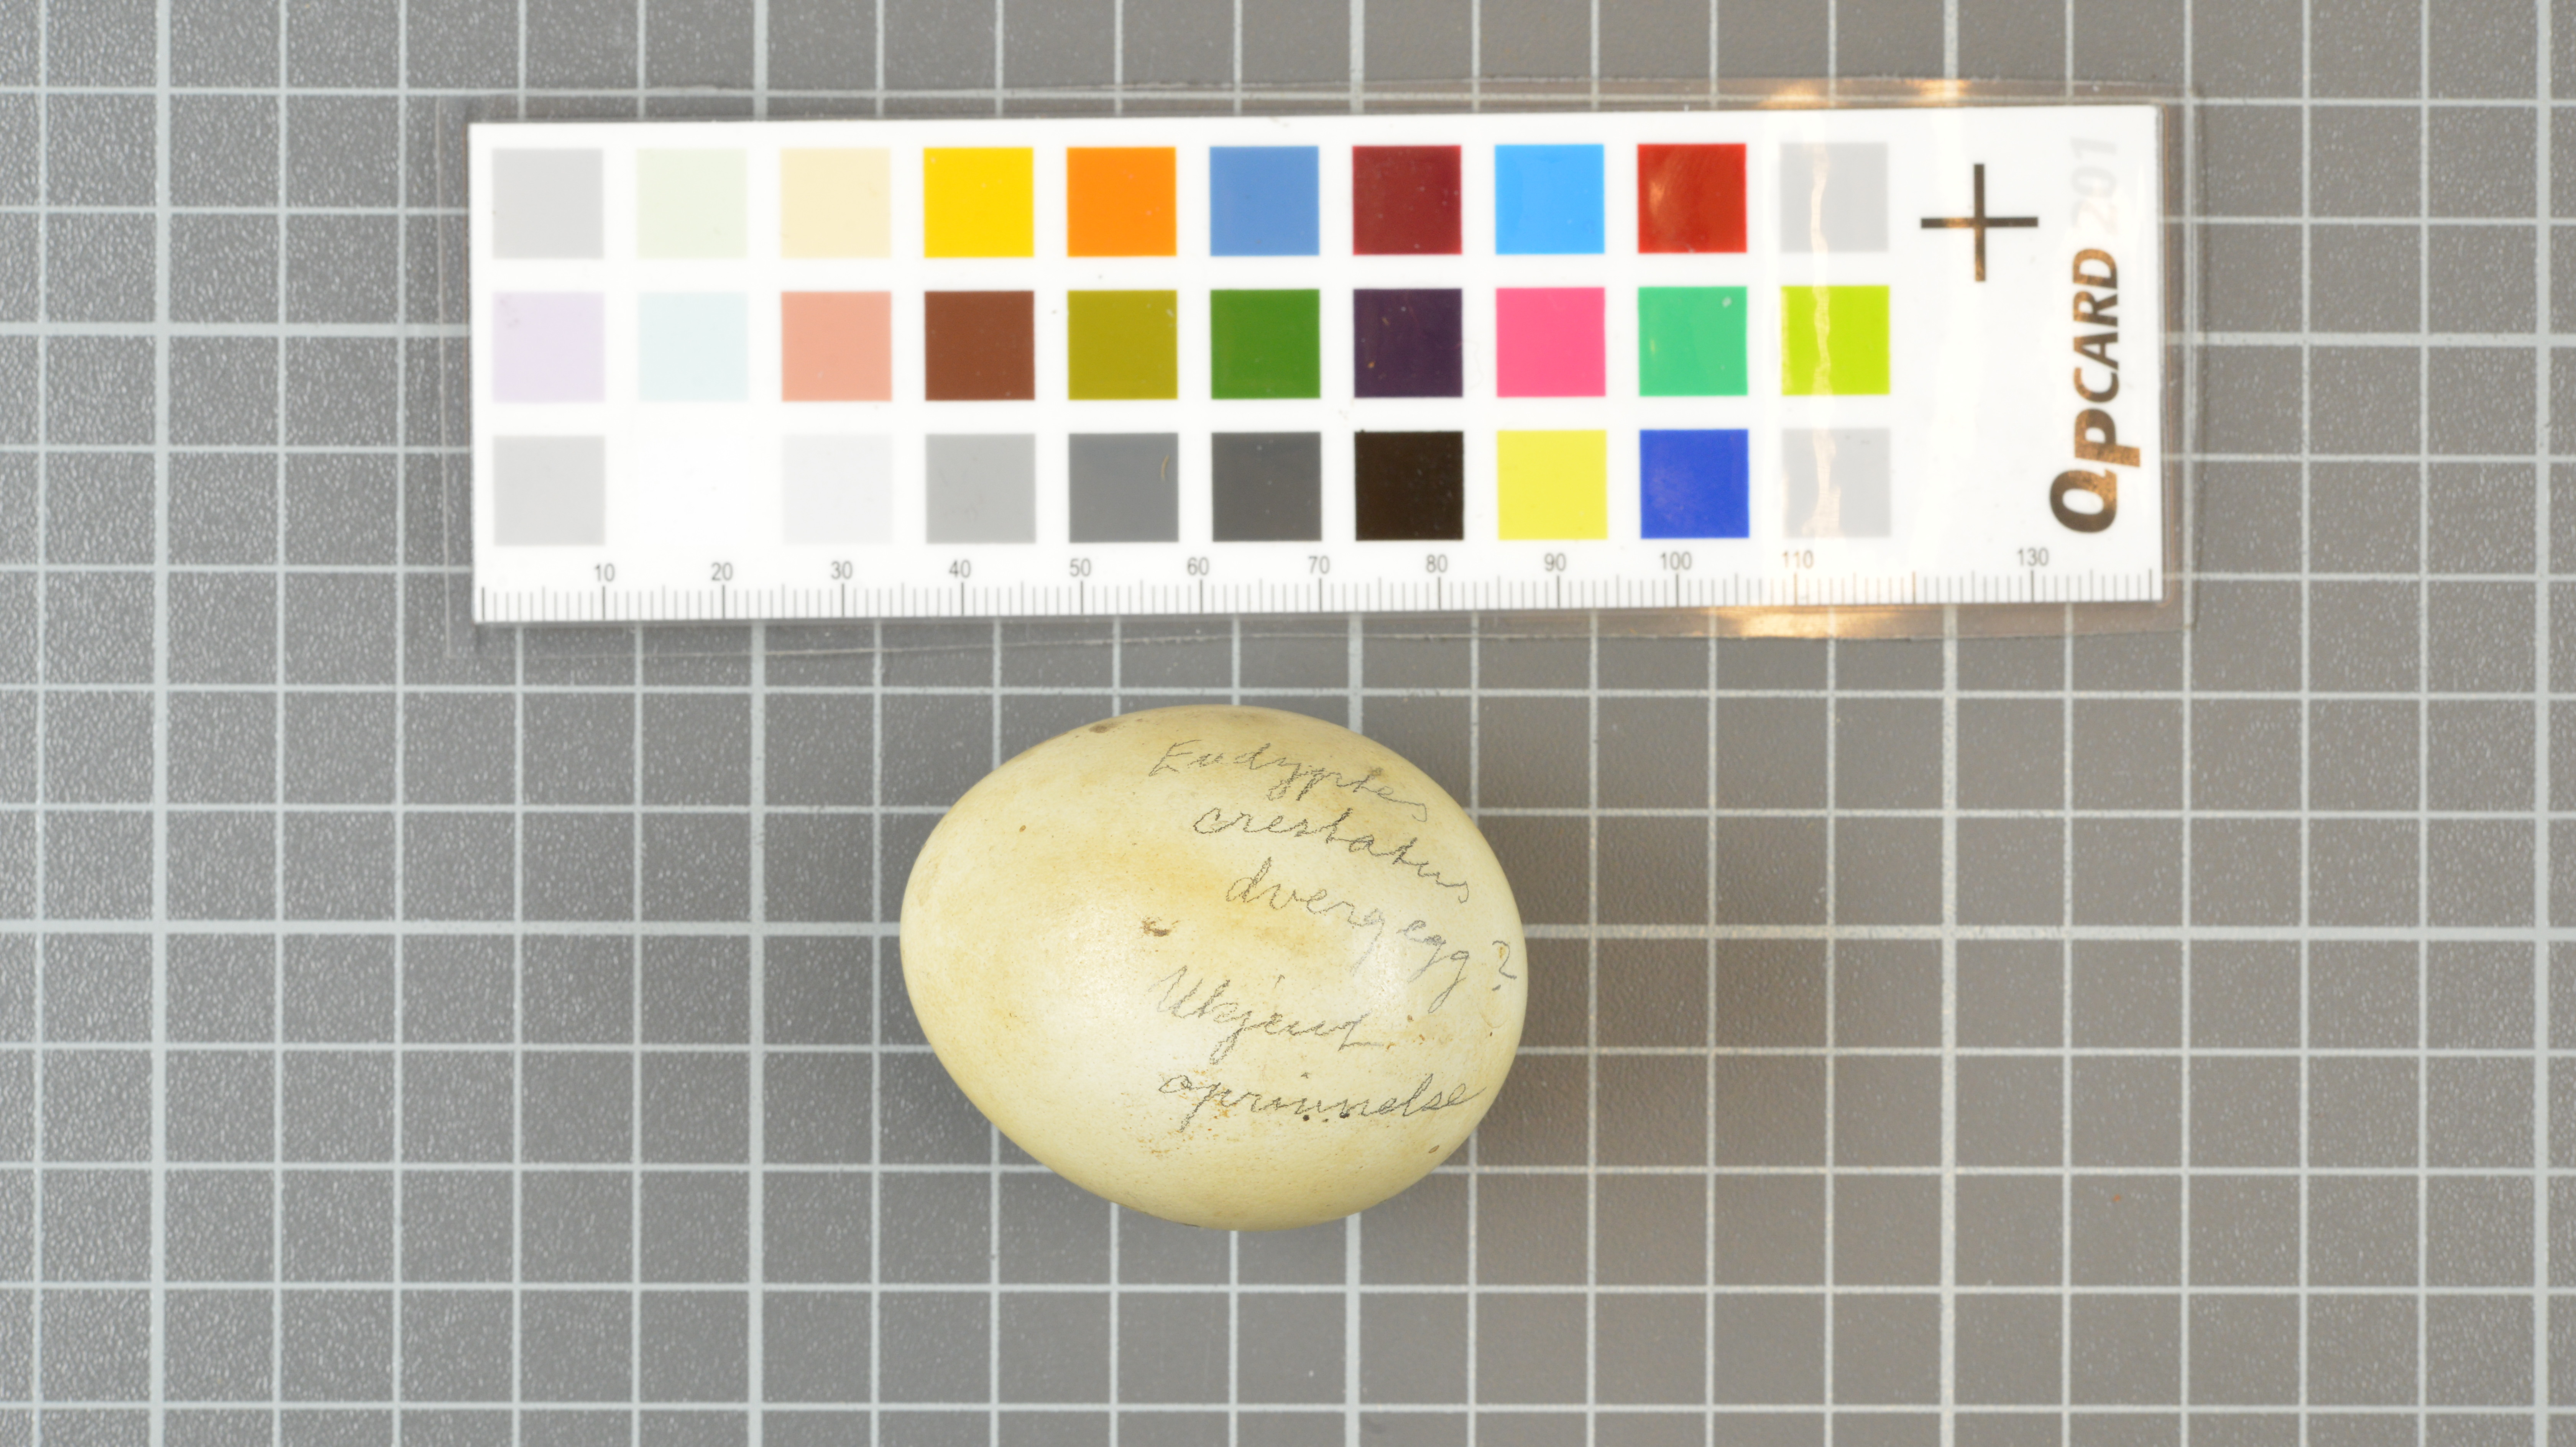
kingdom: Animalia
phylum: Chordata
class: Aves
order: Sphenisciformes
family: Spheniscidae
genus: Eudyptes
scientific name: Eudyptes moseleyi
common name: Northern rockhopper penguin
